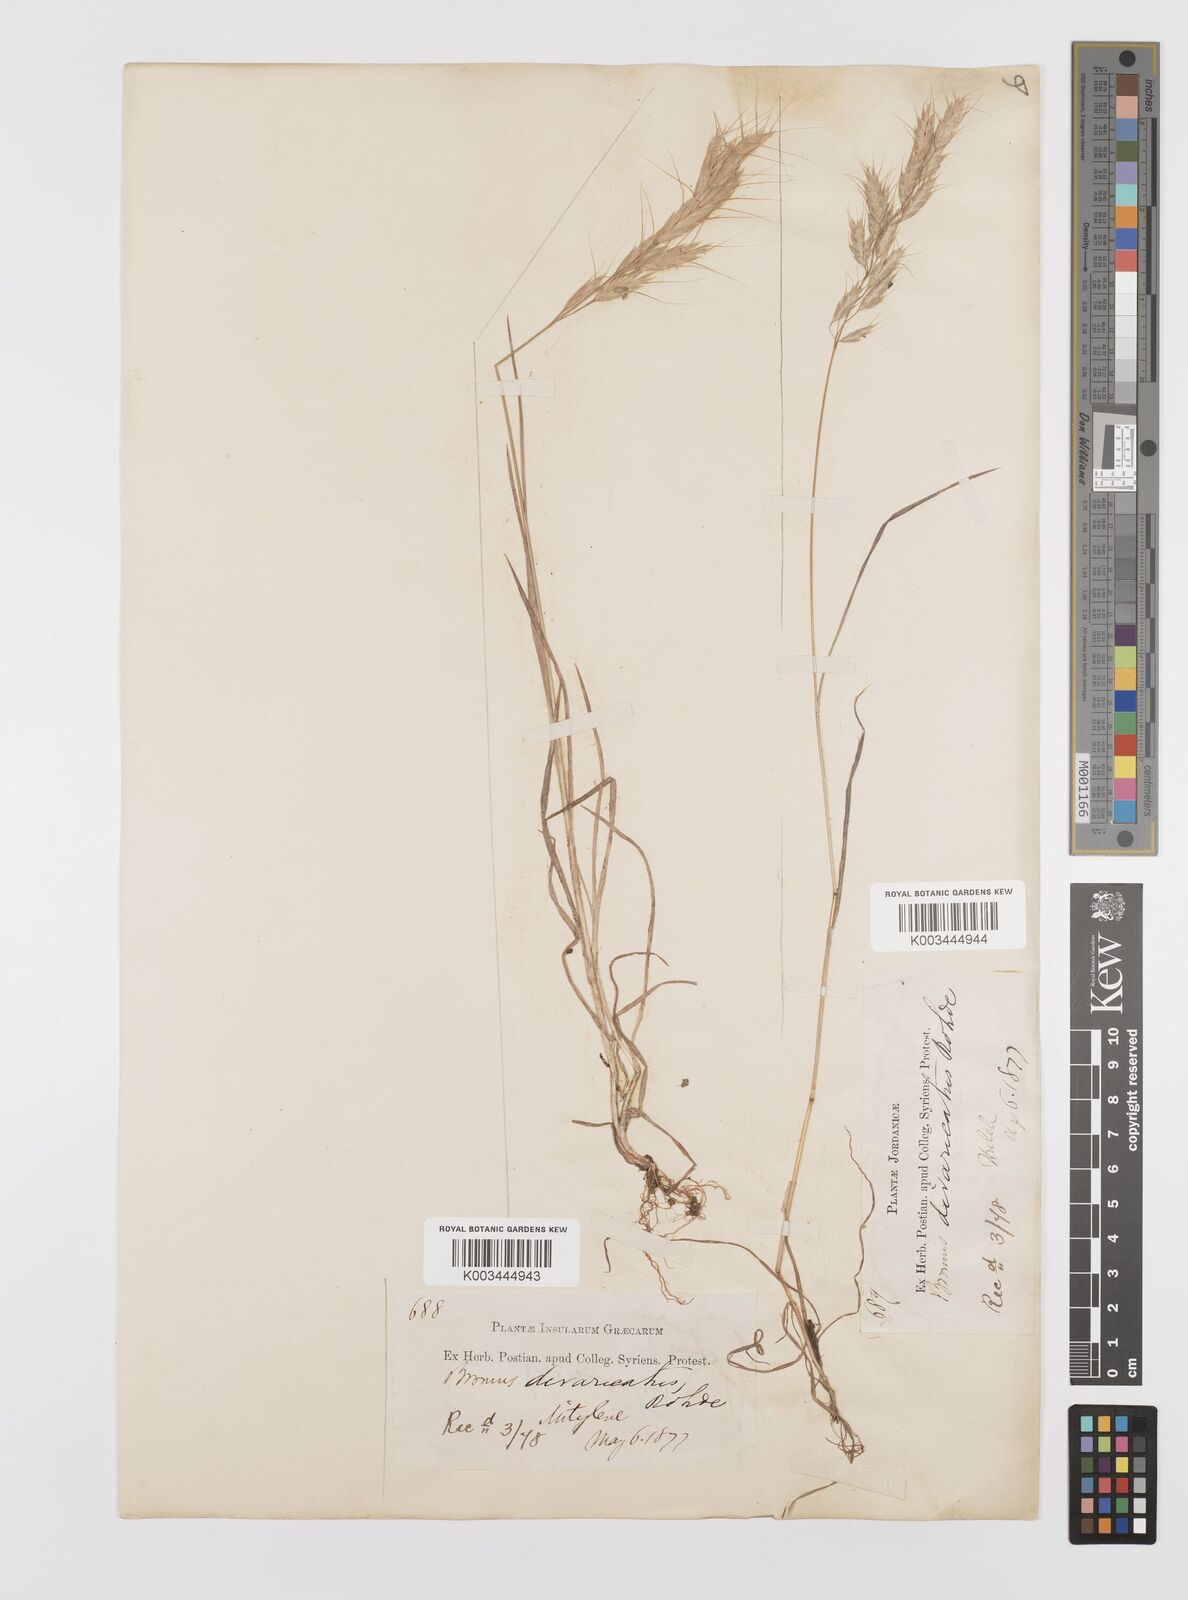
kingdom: Plantae
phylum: Tracheophyta
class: Liliopsida
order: Poales
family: Poaceae
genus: Bromus
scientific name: Bromus lanceolatus
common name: Mediterranean brome
